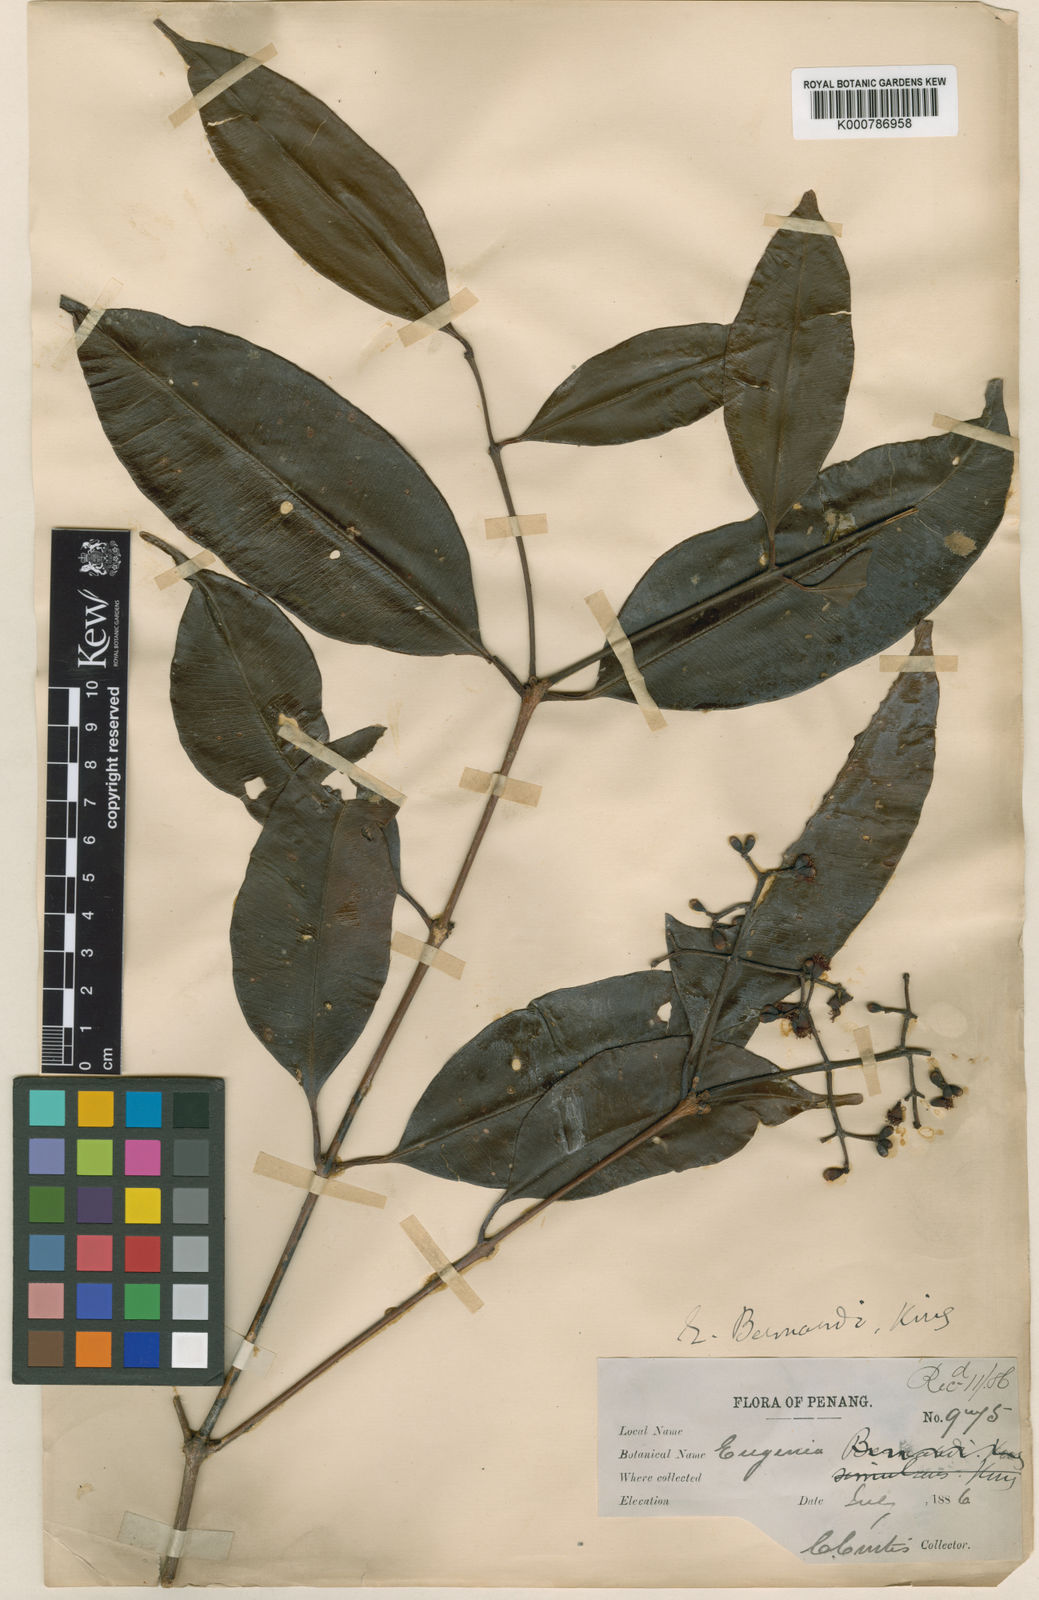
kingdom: Plantae
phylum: Tracheophyta
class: Magnoliopsida
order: Myrtales
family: Myrtaceae
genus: Syzygium
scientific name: Syzygium bernardoi
